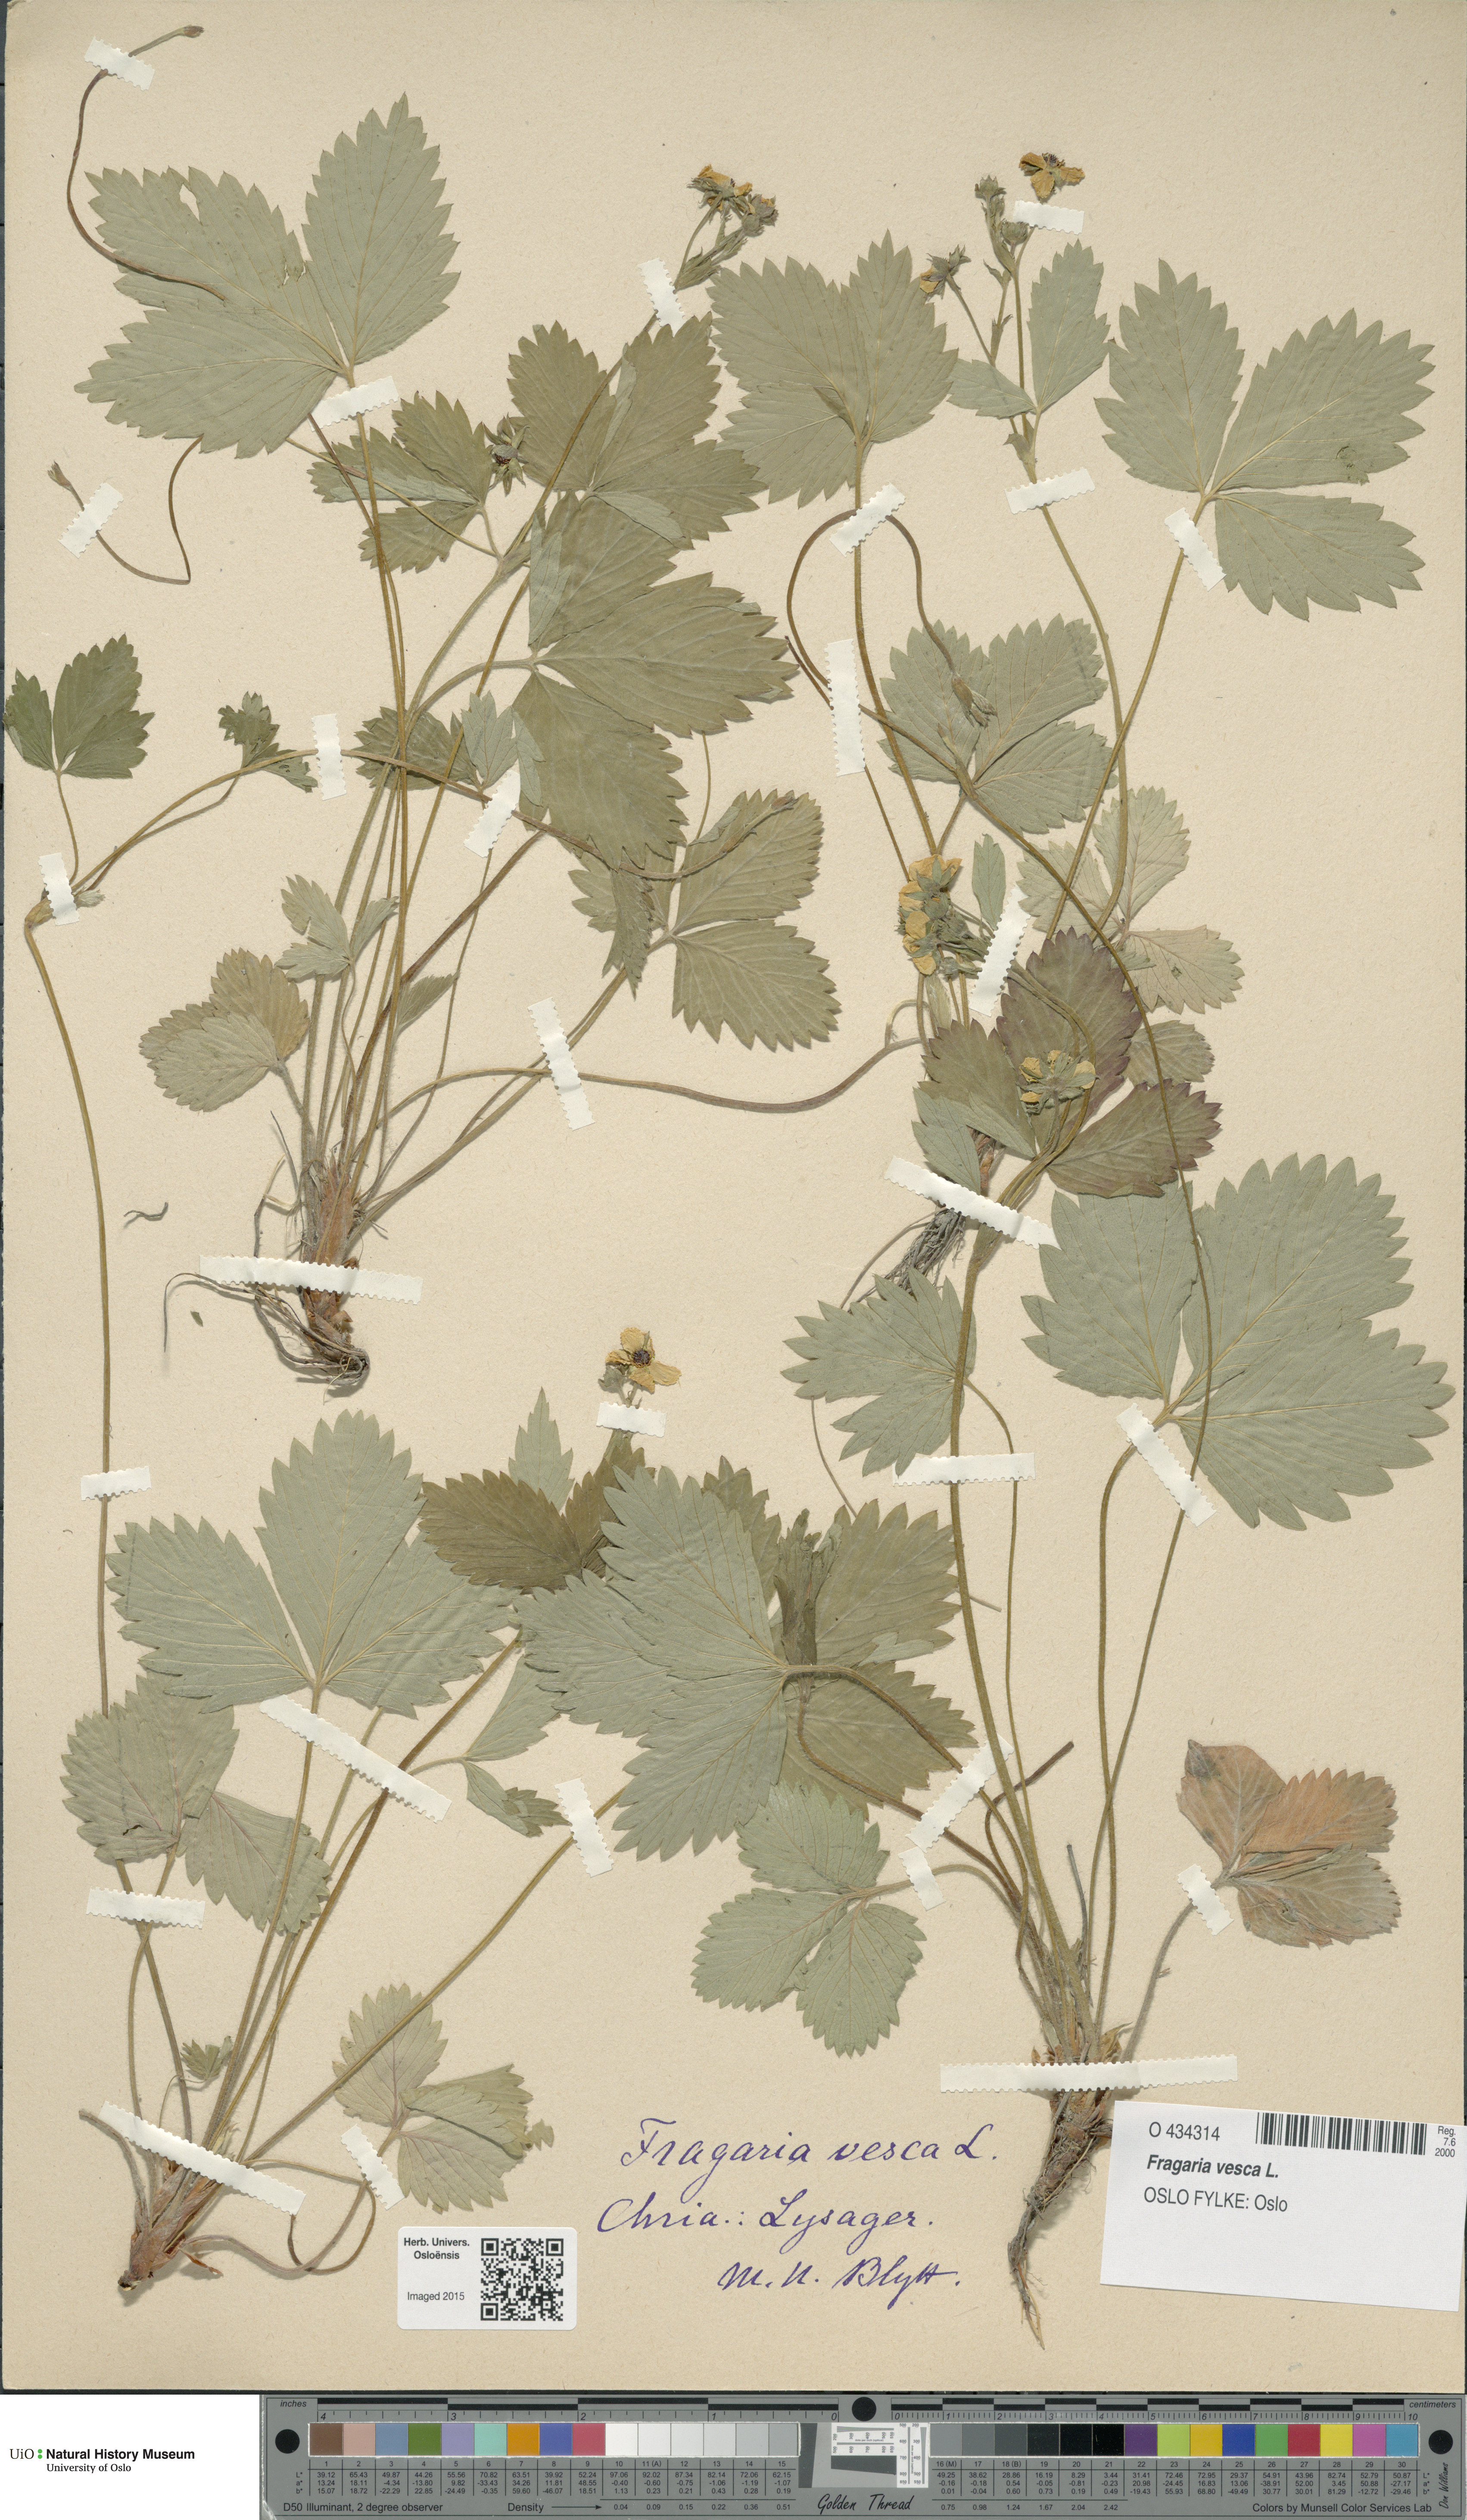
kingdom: Plantae
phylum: Tracheophyta
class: Magnoliopsida
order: Rosales
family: Rosaceae
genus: Fragaria
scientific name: Fragaria vesca
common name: Wild strawberry
